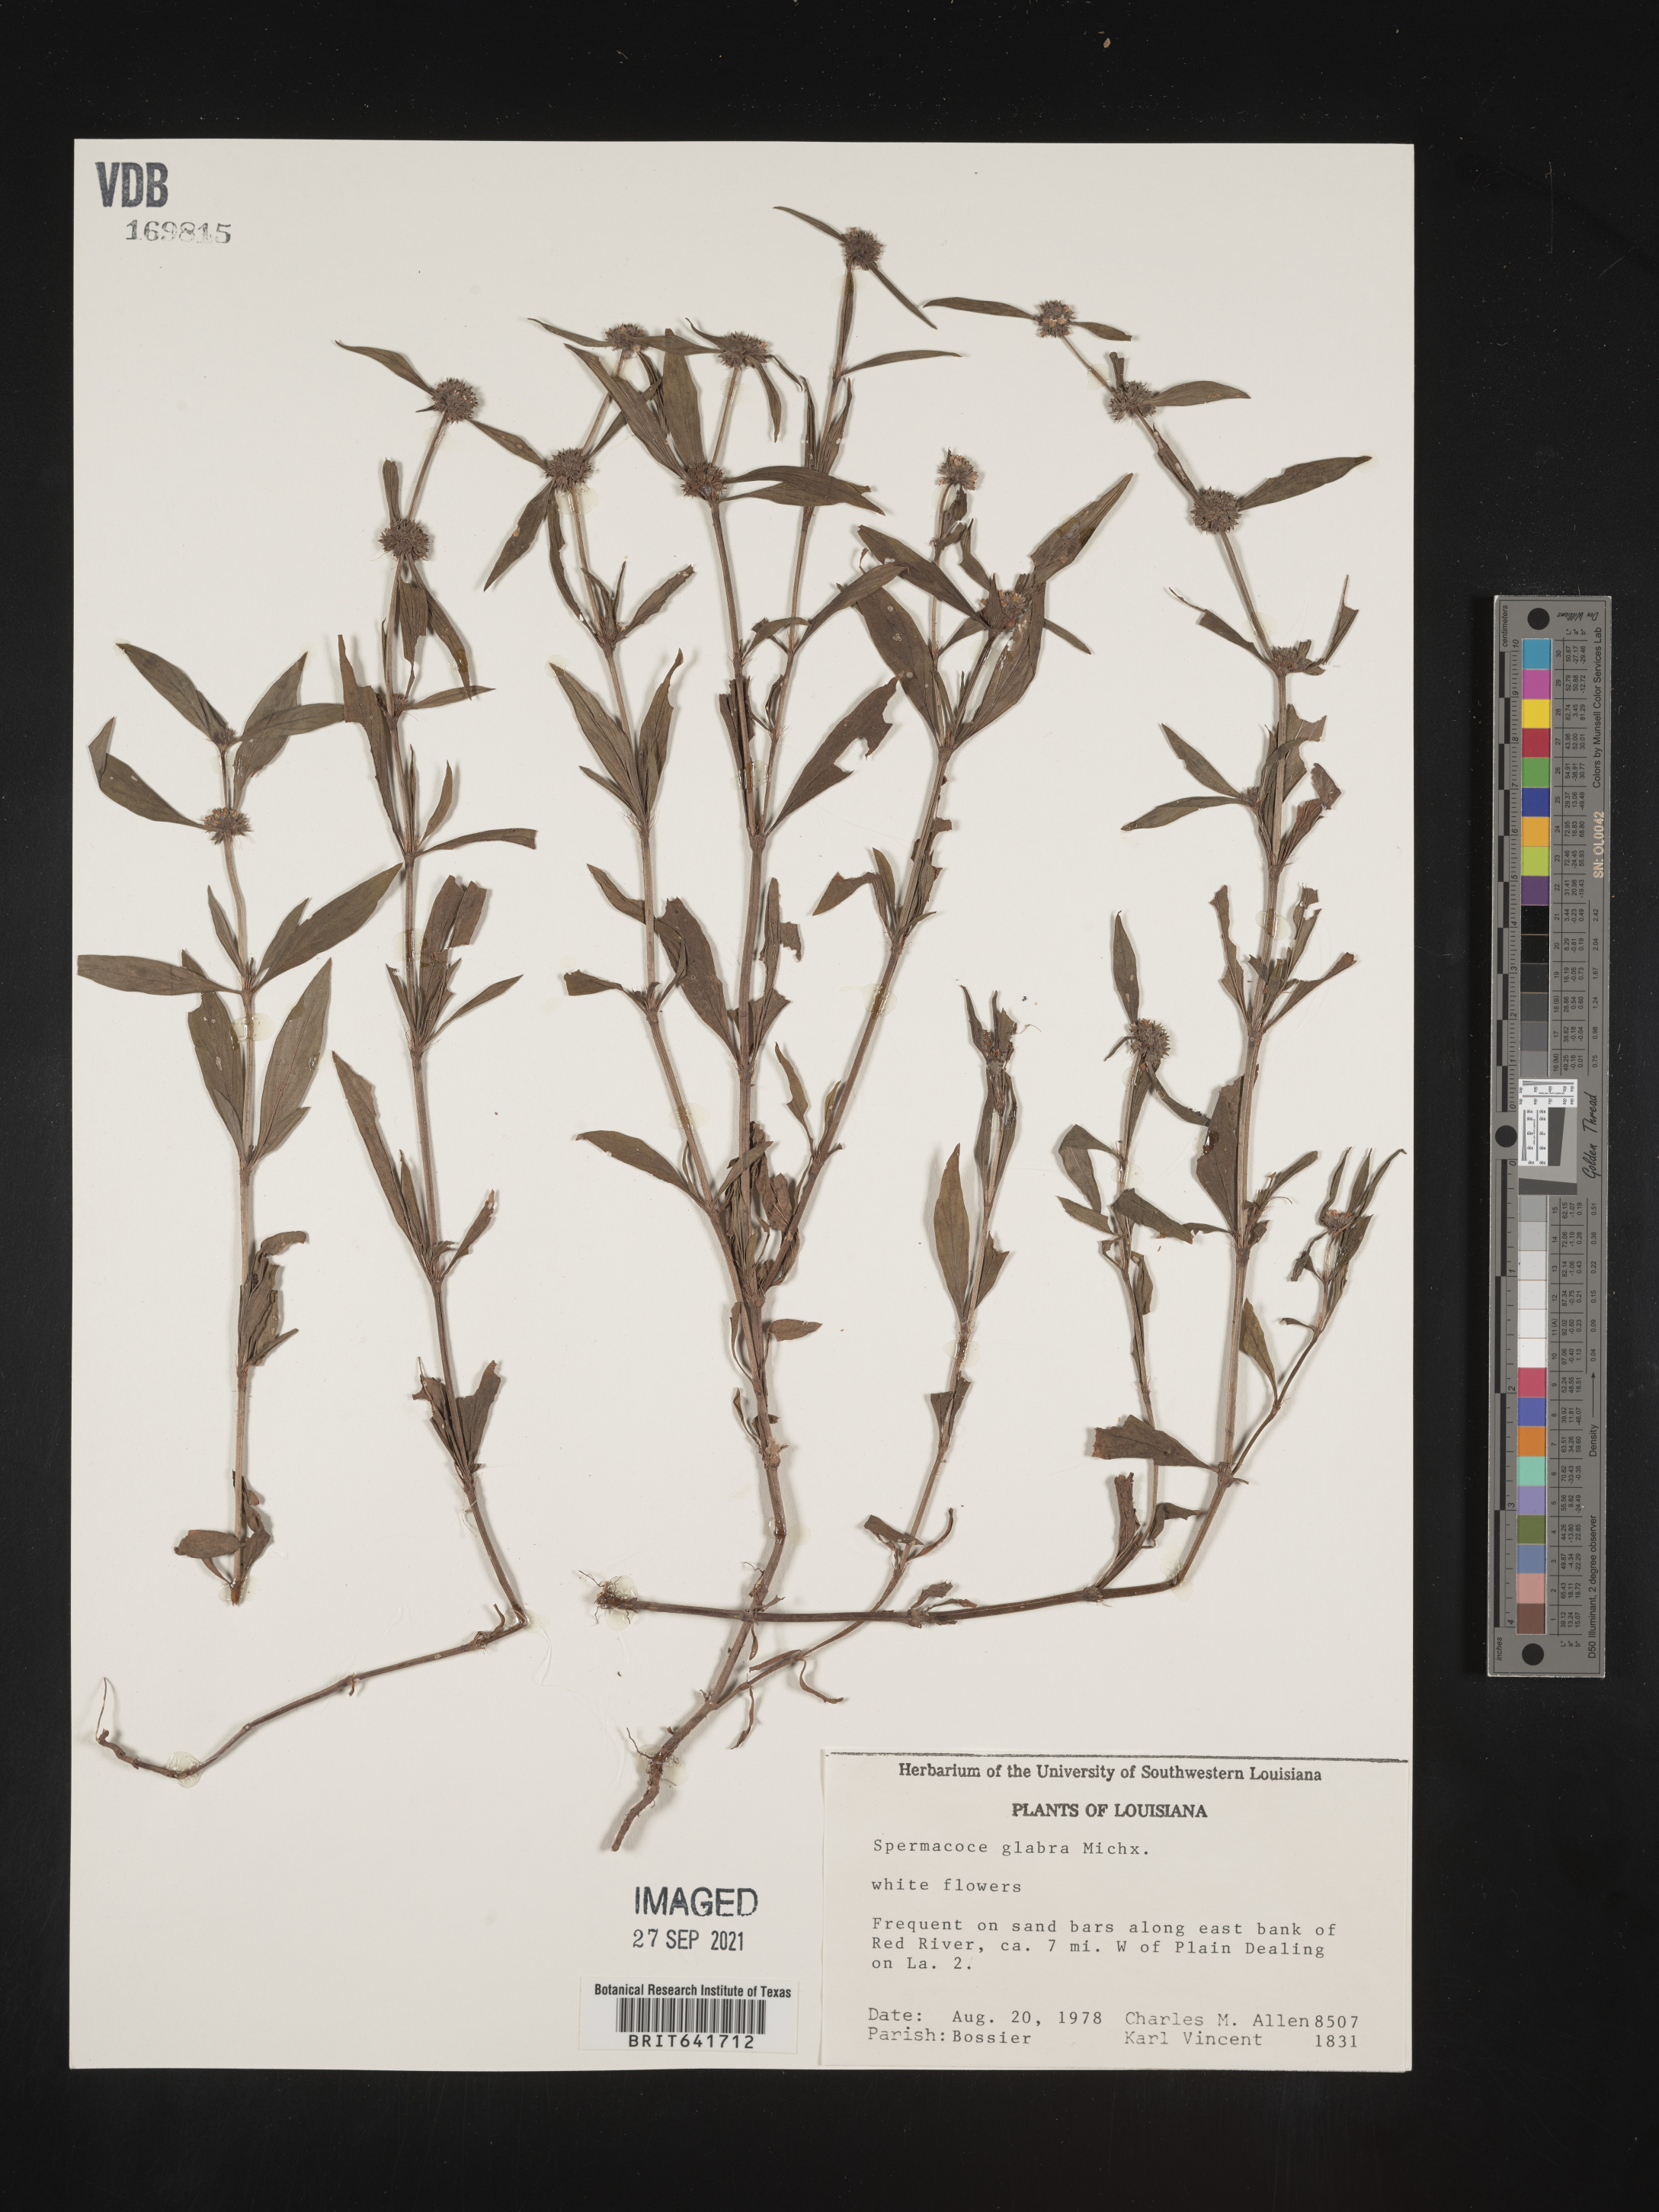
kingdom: Plantae
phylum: Tracheophyta
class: Magnoliopsida
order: Gentianales
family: Rubiaceae
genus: Spermacoce
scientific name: Spermacoce glabra
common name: Smooth buttonweed
